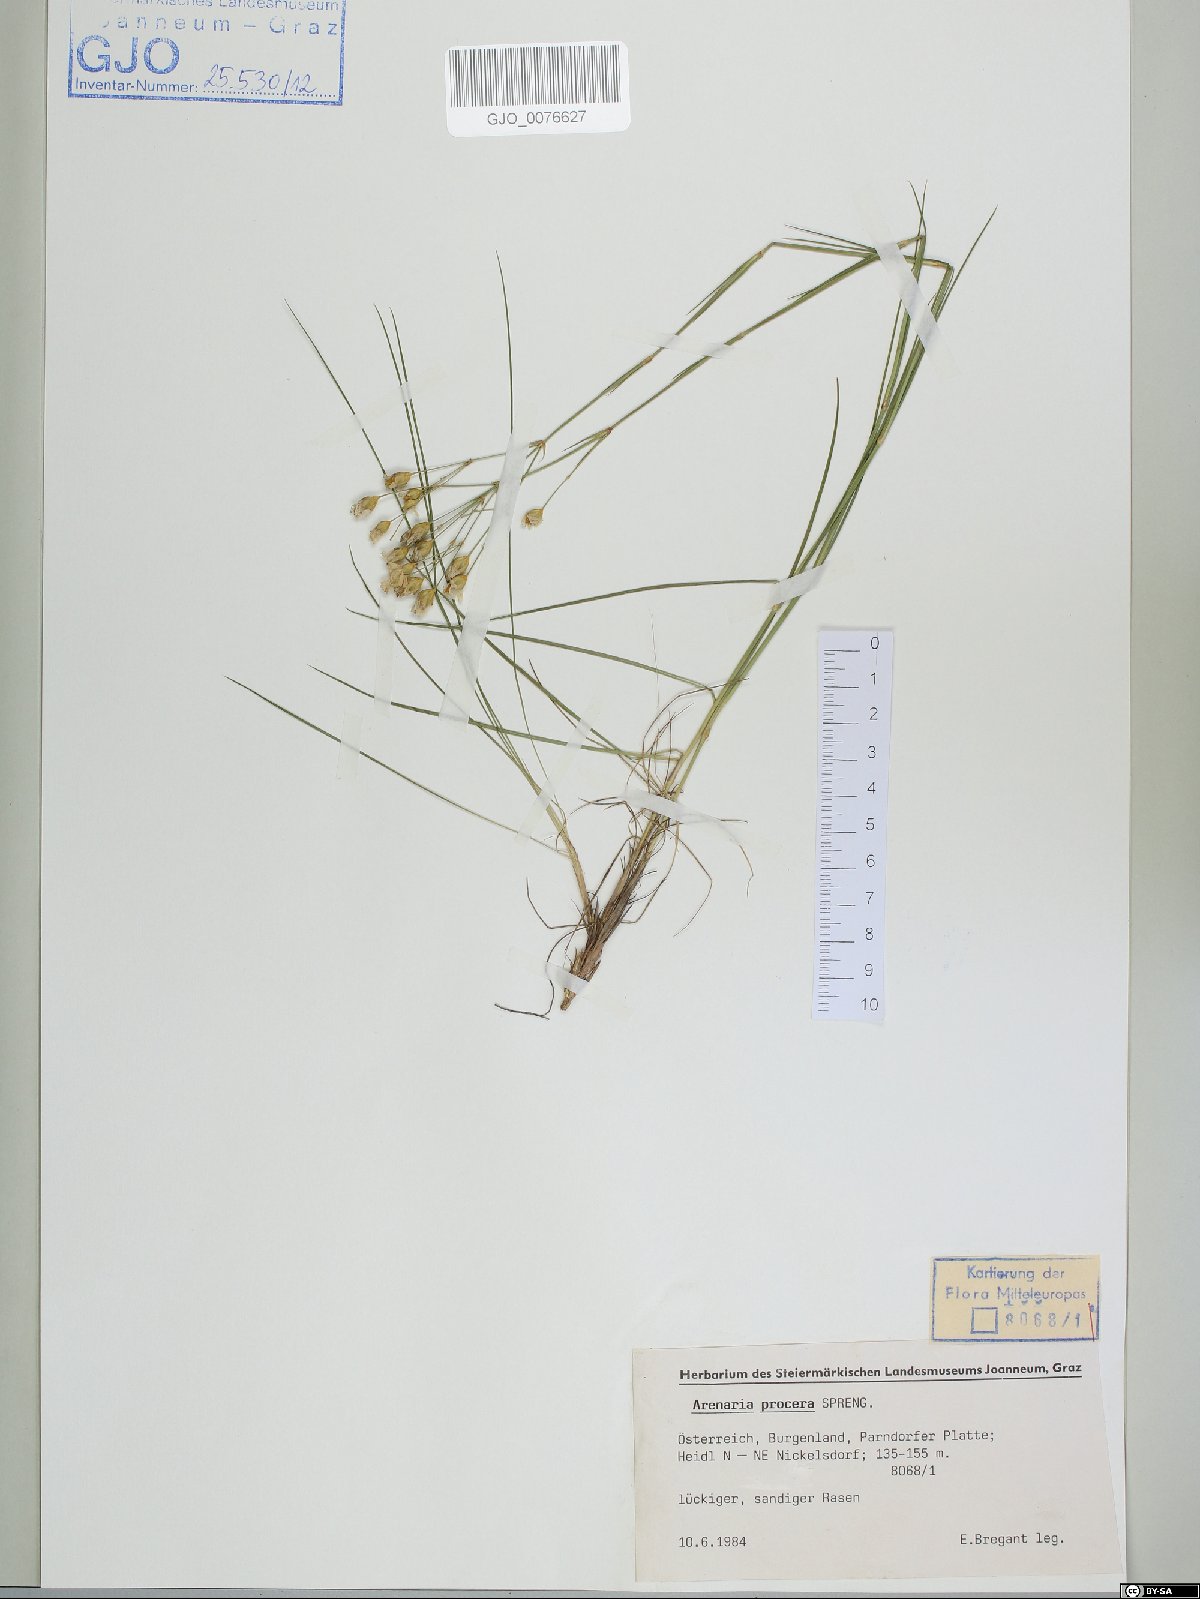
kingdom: Plantae
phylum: Tracheophyta
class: Magnoliopsida
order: Caryophyllales
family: Caryophyllaceae
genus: Eremogone
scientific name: Eremogone saxatilis
